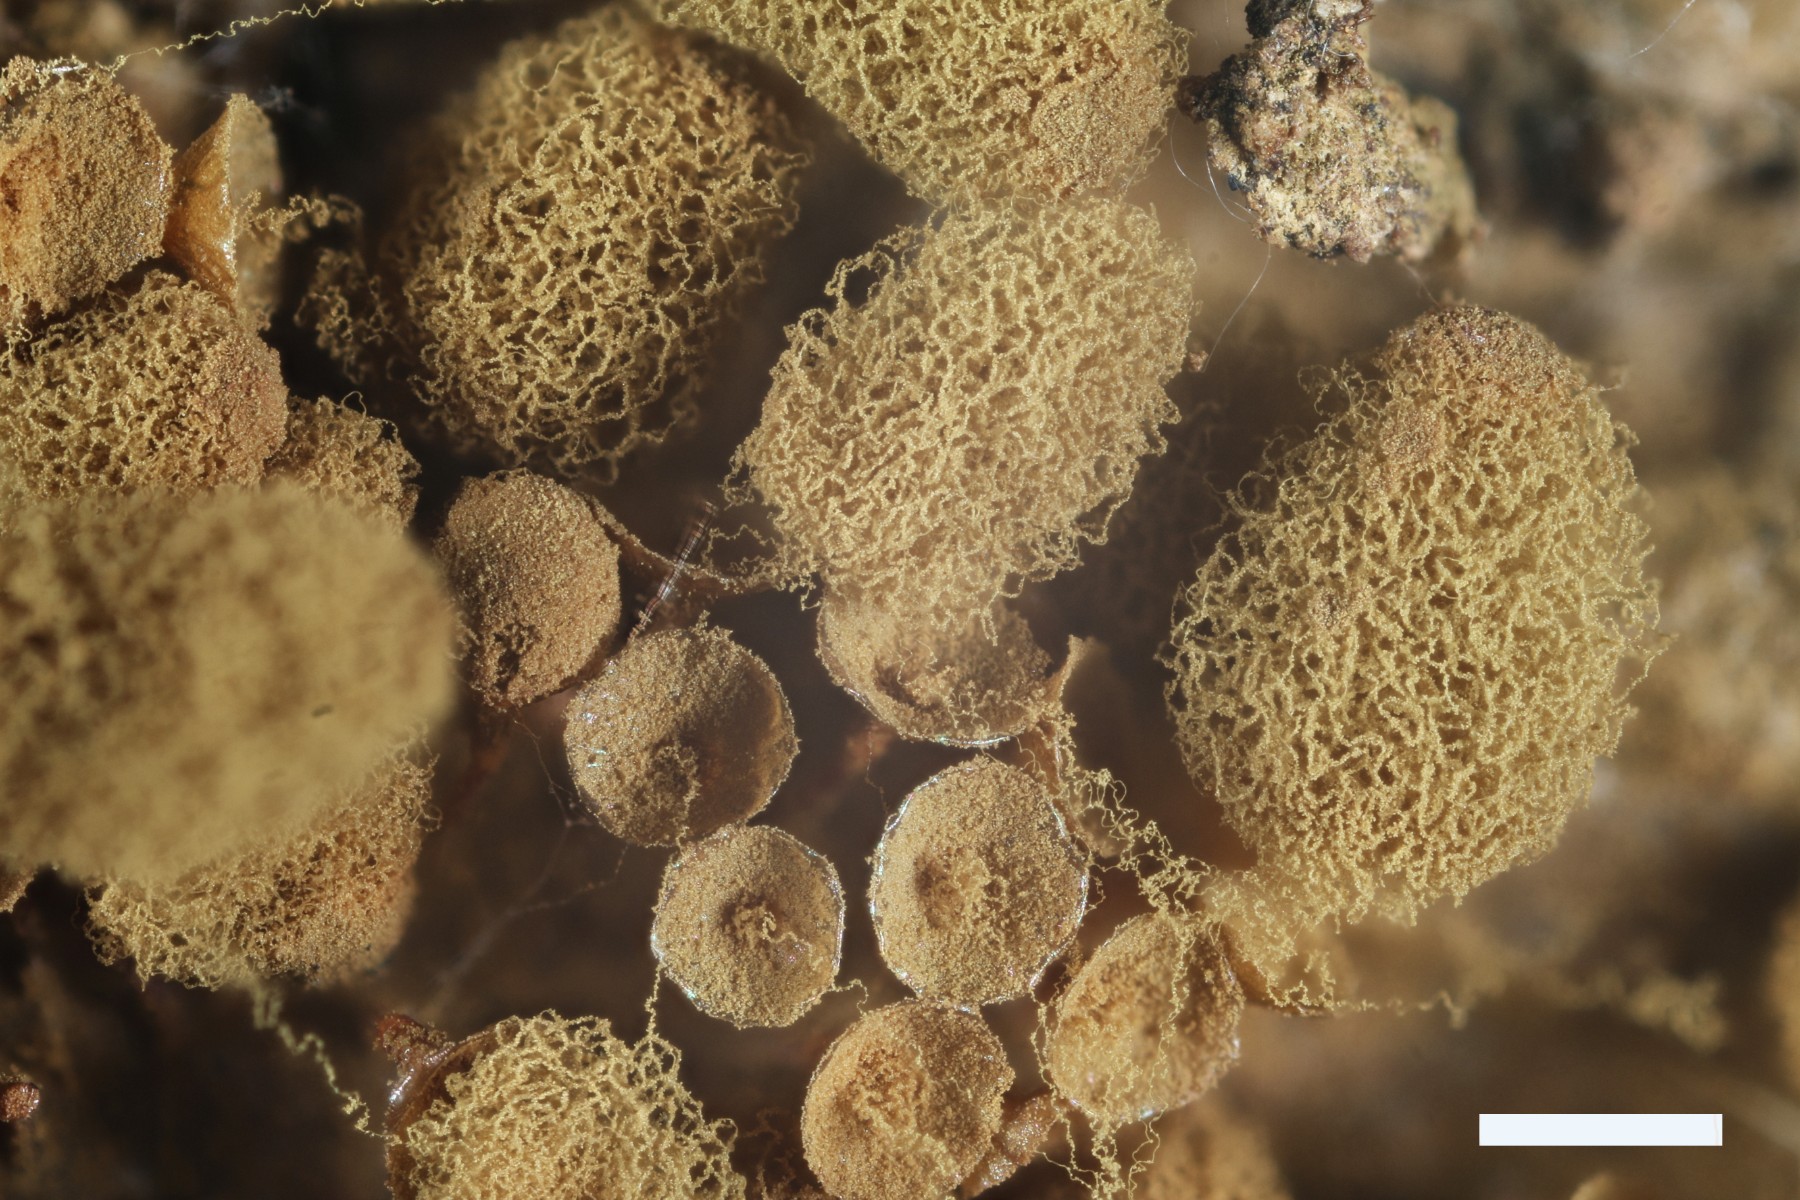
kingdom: Protozoa
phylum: Mycetozoa
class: Myxomycetes
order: Trichiales
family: Arcyriaceae
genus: Arcyria
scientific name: Arcyria ferruginea
